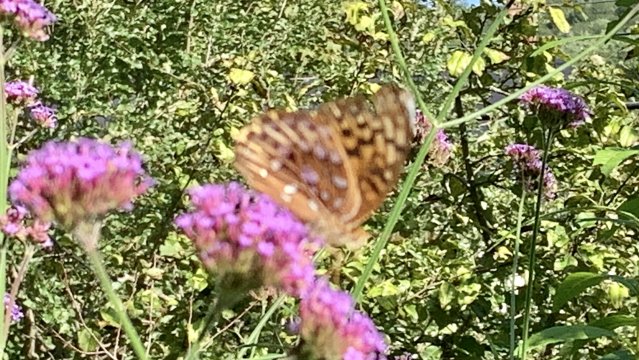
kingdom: Animalia
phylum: Arthropoda
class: Insecta
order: Lepidoptera
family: Nymphalidae
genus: Speyeria
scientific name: Speyeria cybele
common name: Great Spangled Fritillary
